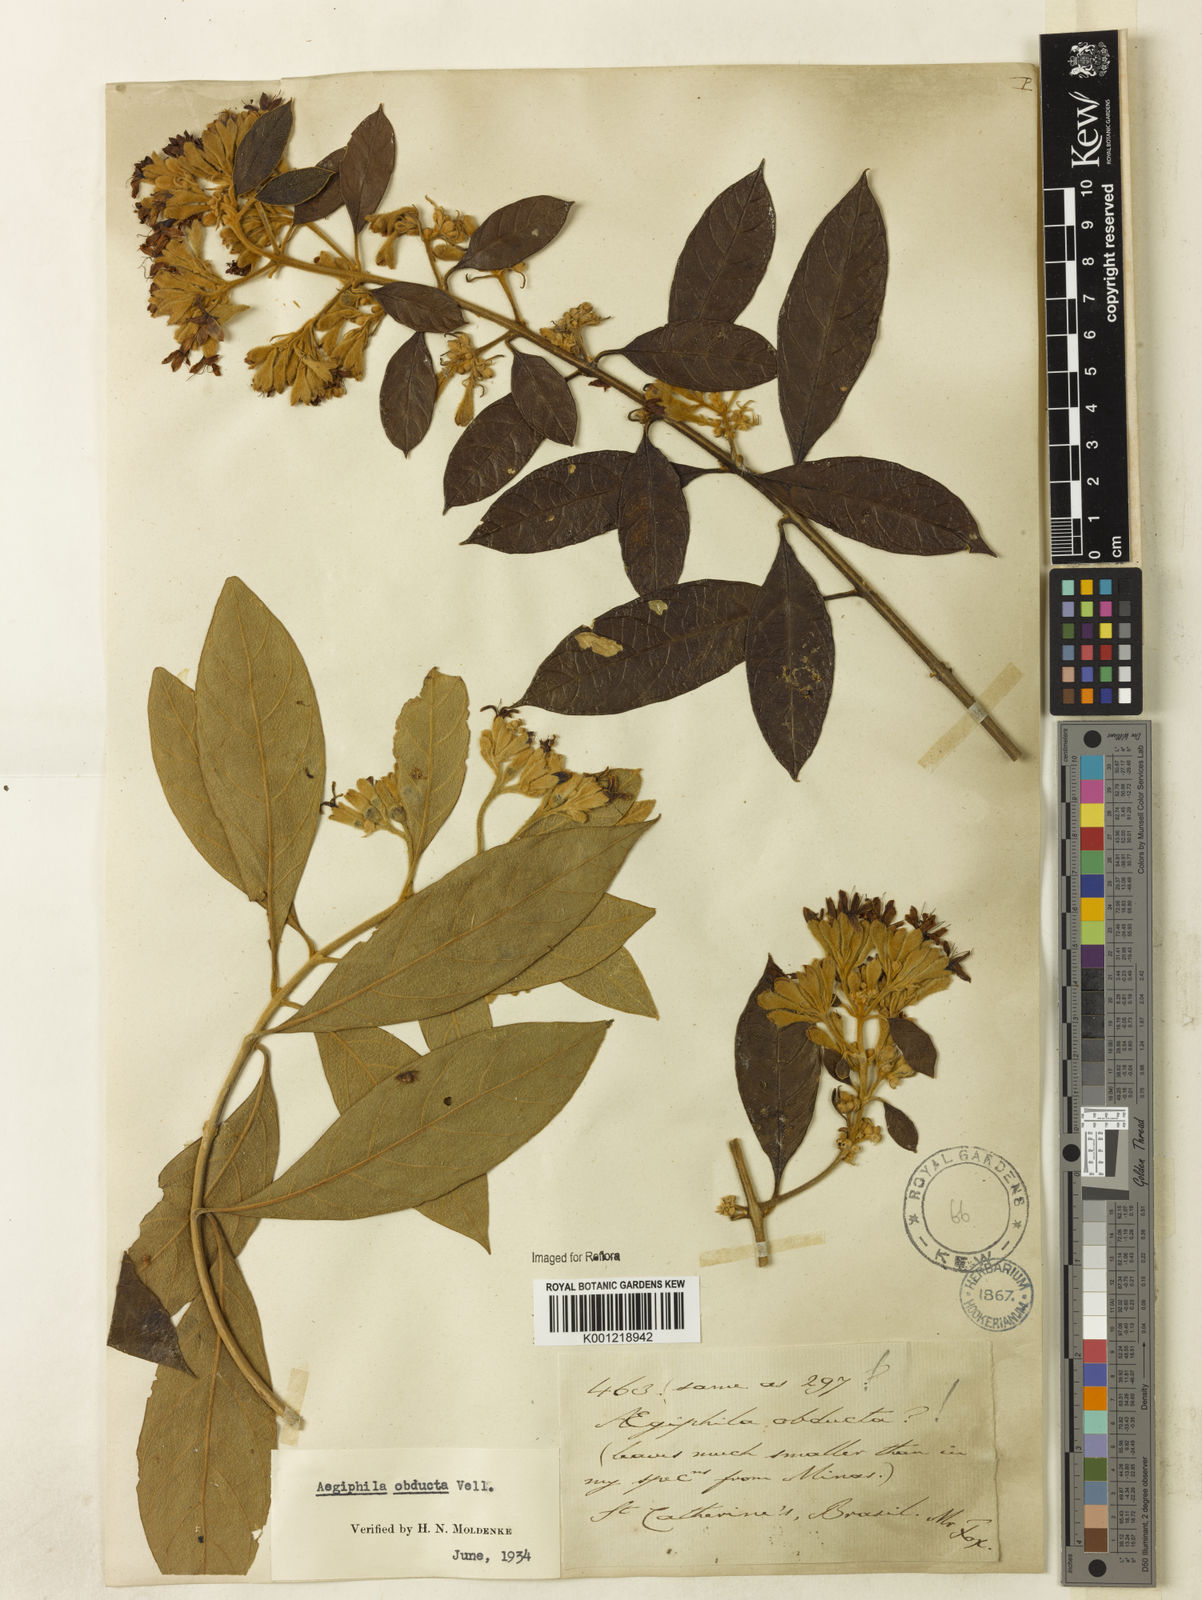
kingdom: Plantae
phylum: Tracheophyta
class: Magnoliopsida
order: Lamiales
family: Lamiaceae
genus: Aegiphila
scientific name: Aegiphila obducta
